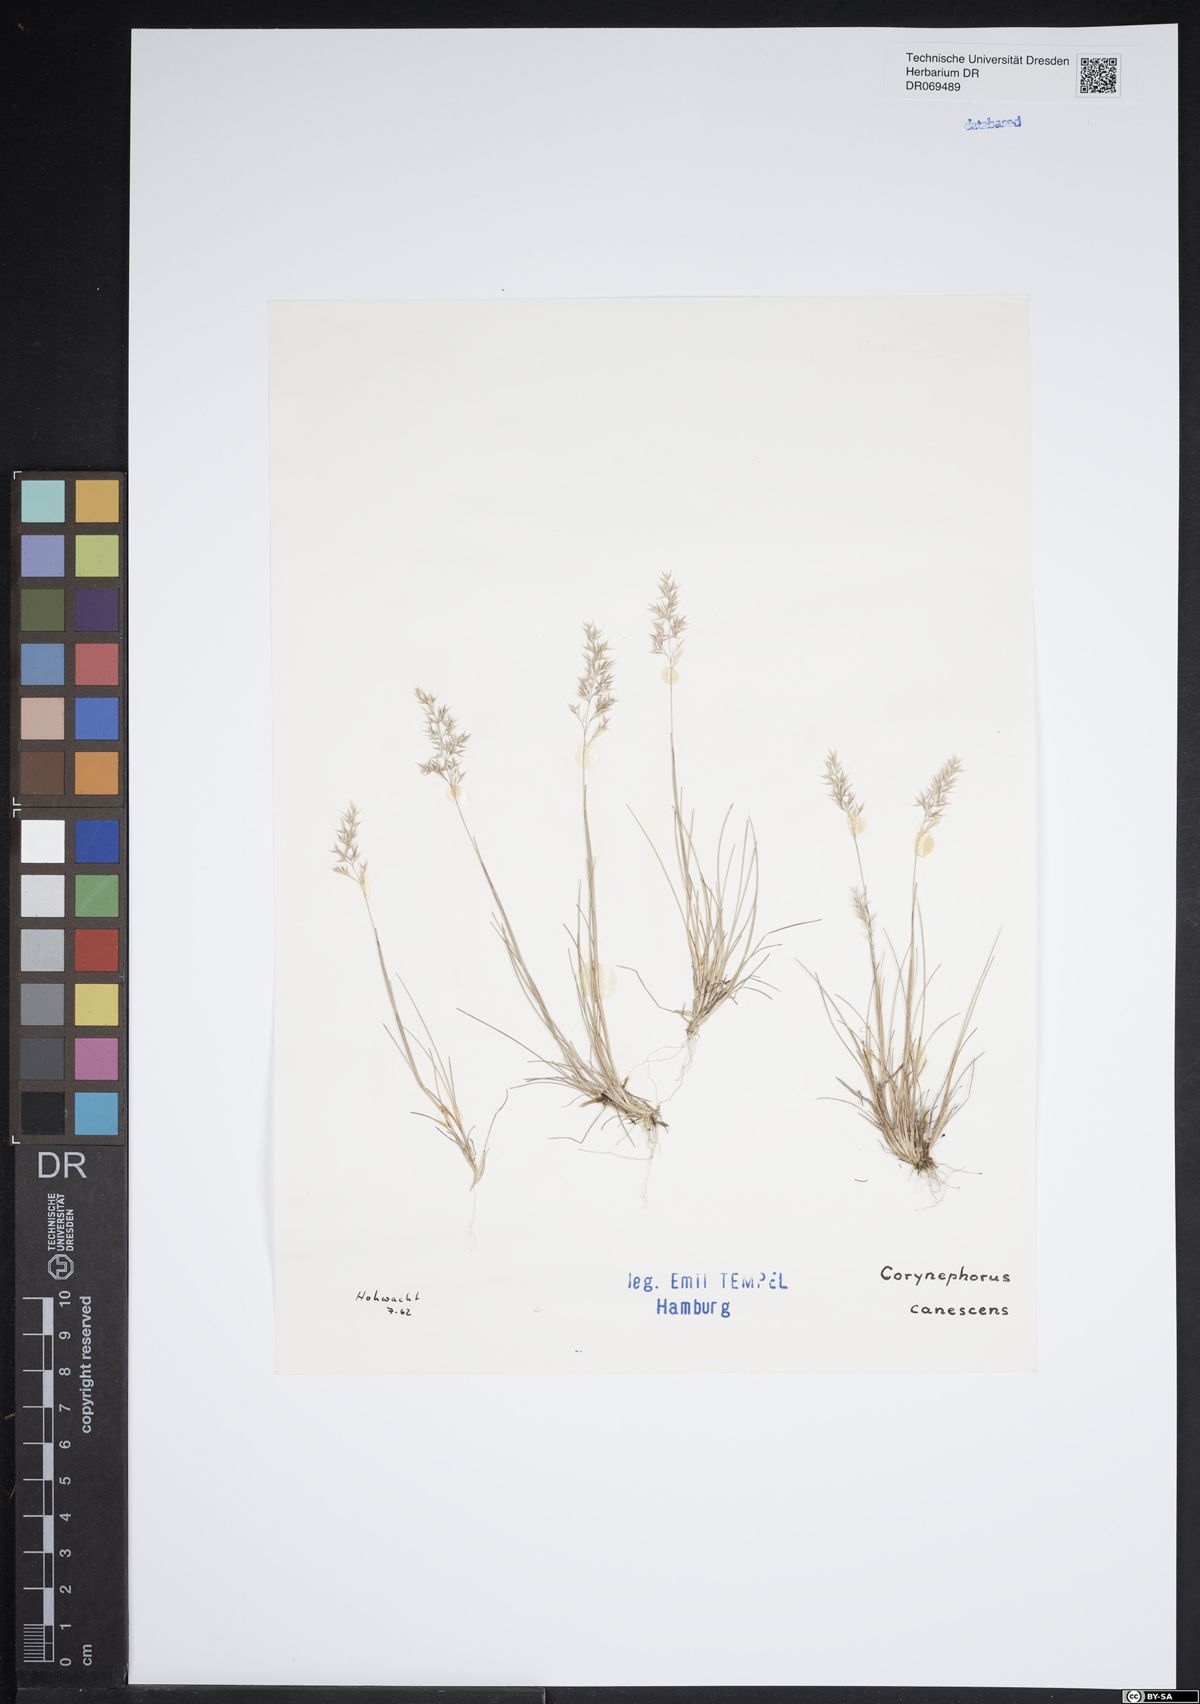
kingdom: Plantae
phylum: Tracheophyta
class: Liliopsida
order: Poales
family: Poaceae
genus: Corynephorus
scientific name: Corynephorus canescens
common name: Grey hair-grass
